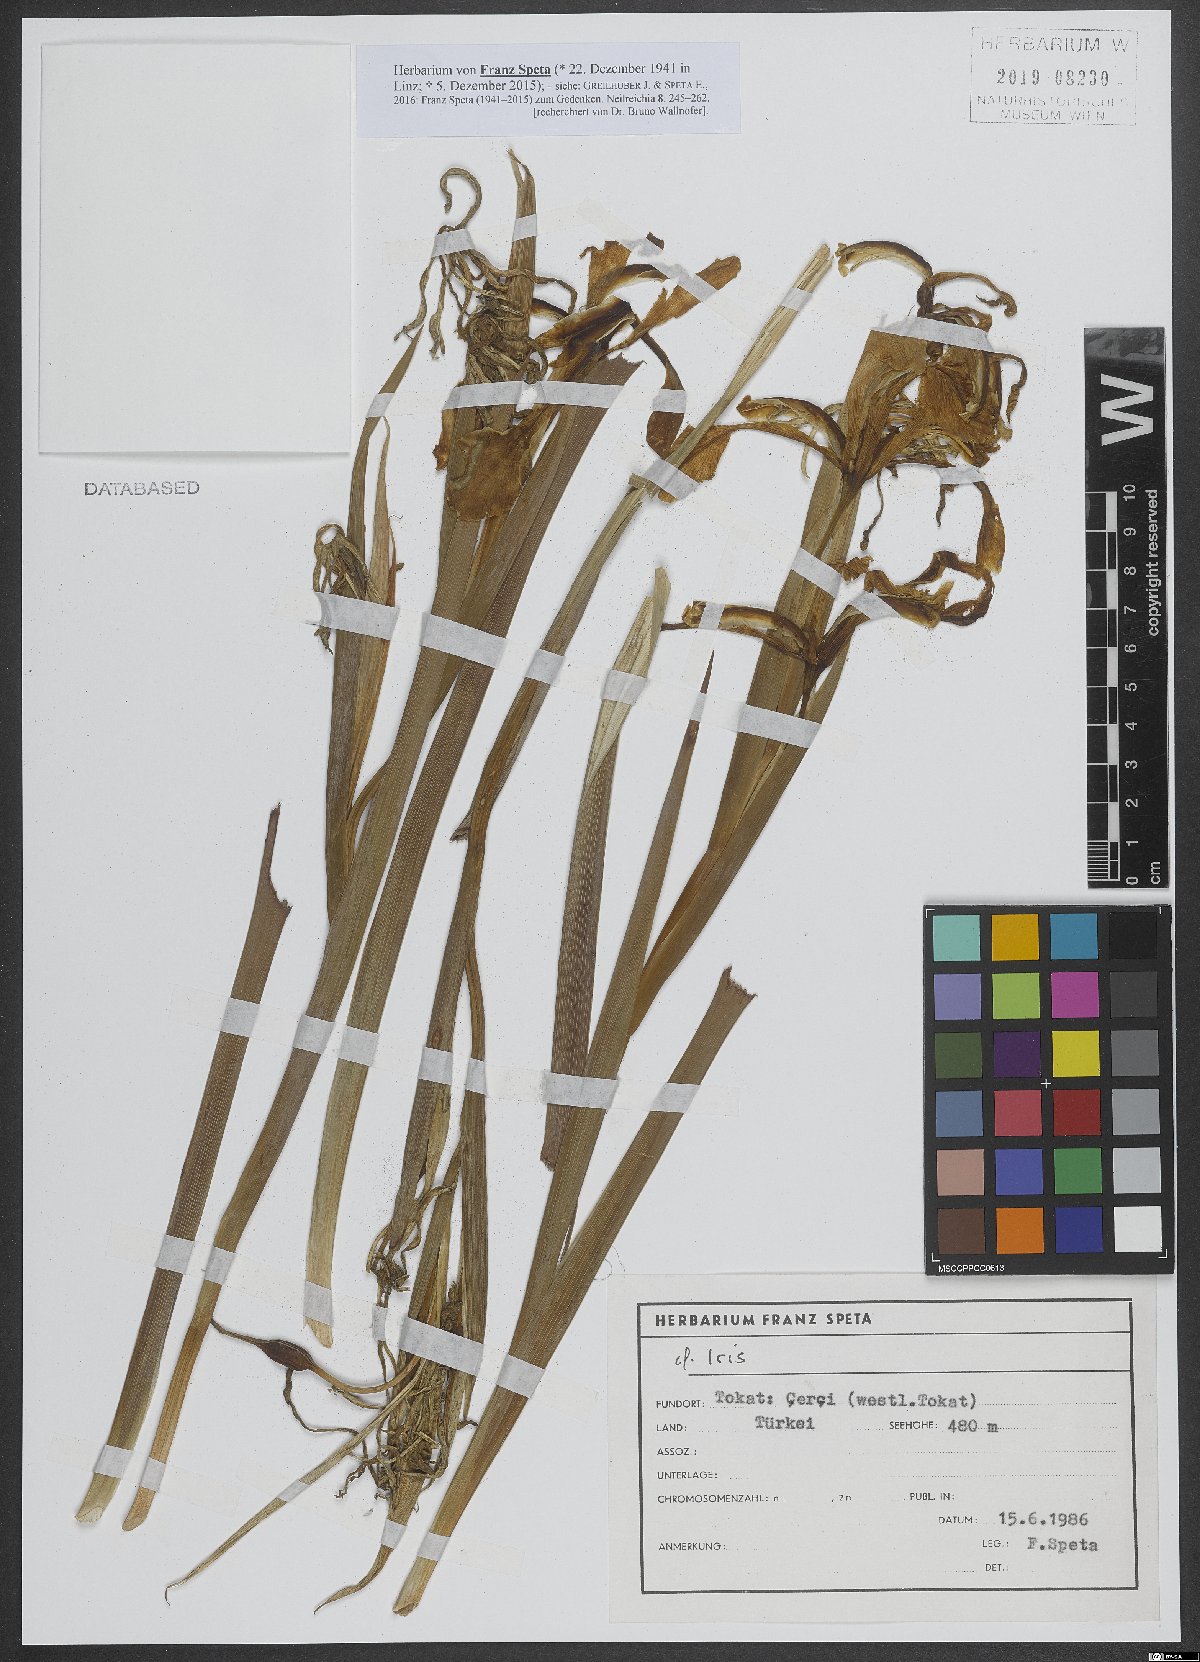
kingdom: Plantae
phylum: Tracheophyta
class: Liliopsida
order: Asparagales
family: Iridaceae
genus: Iris
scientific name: Iris
